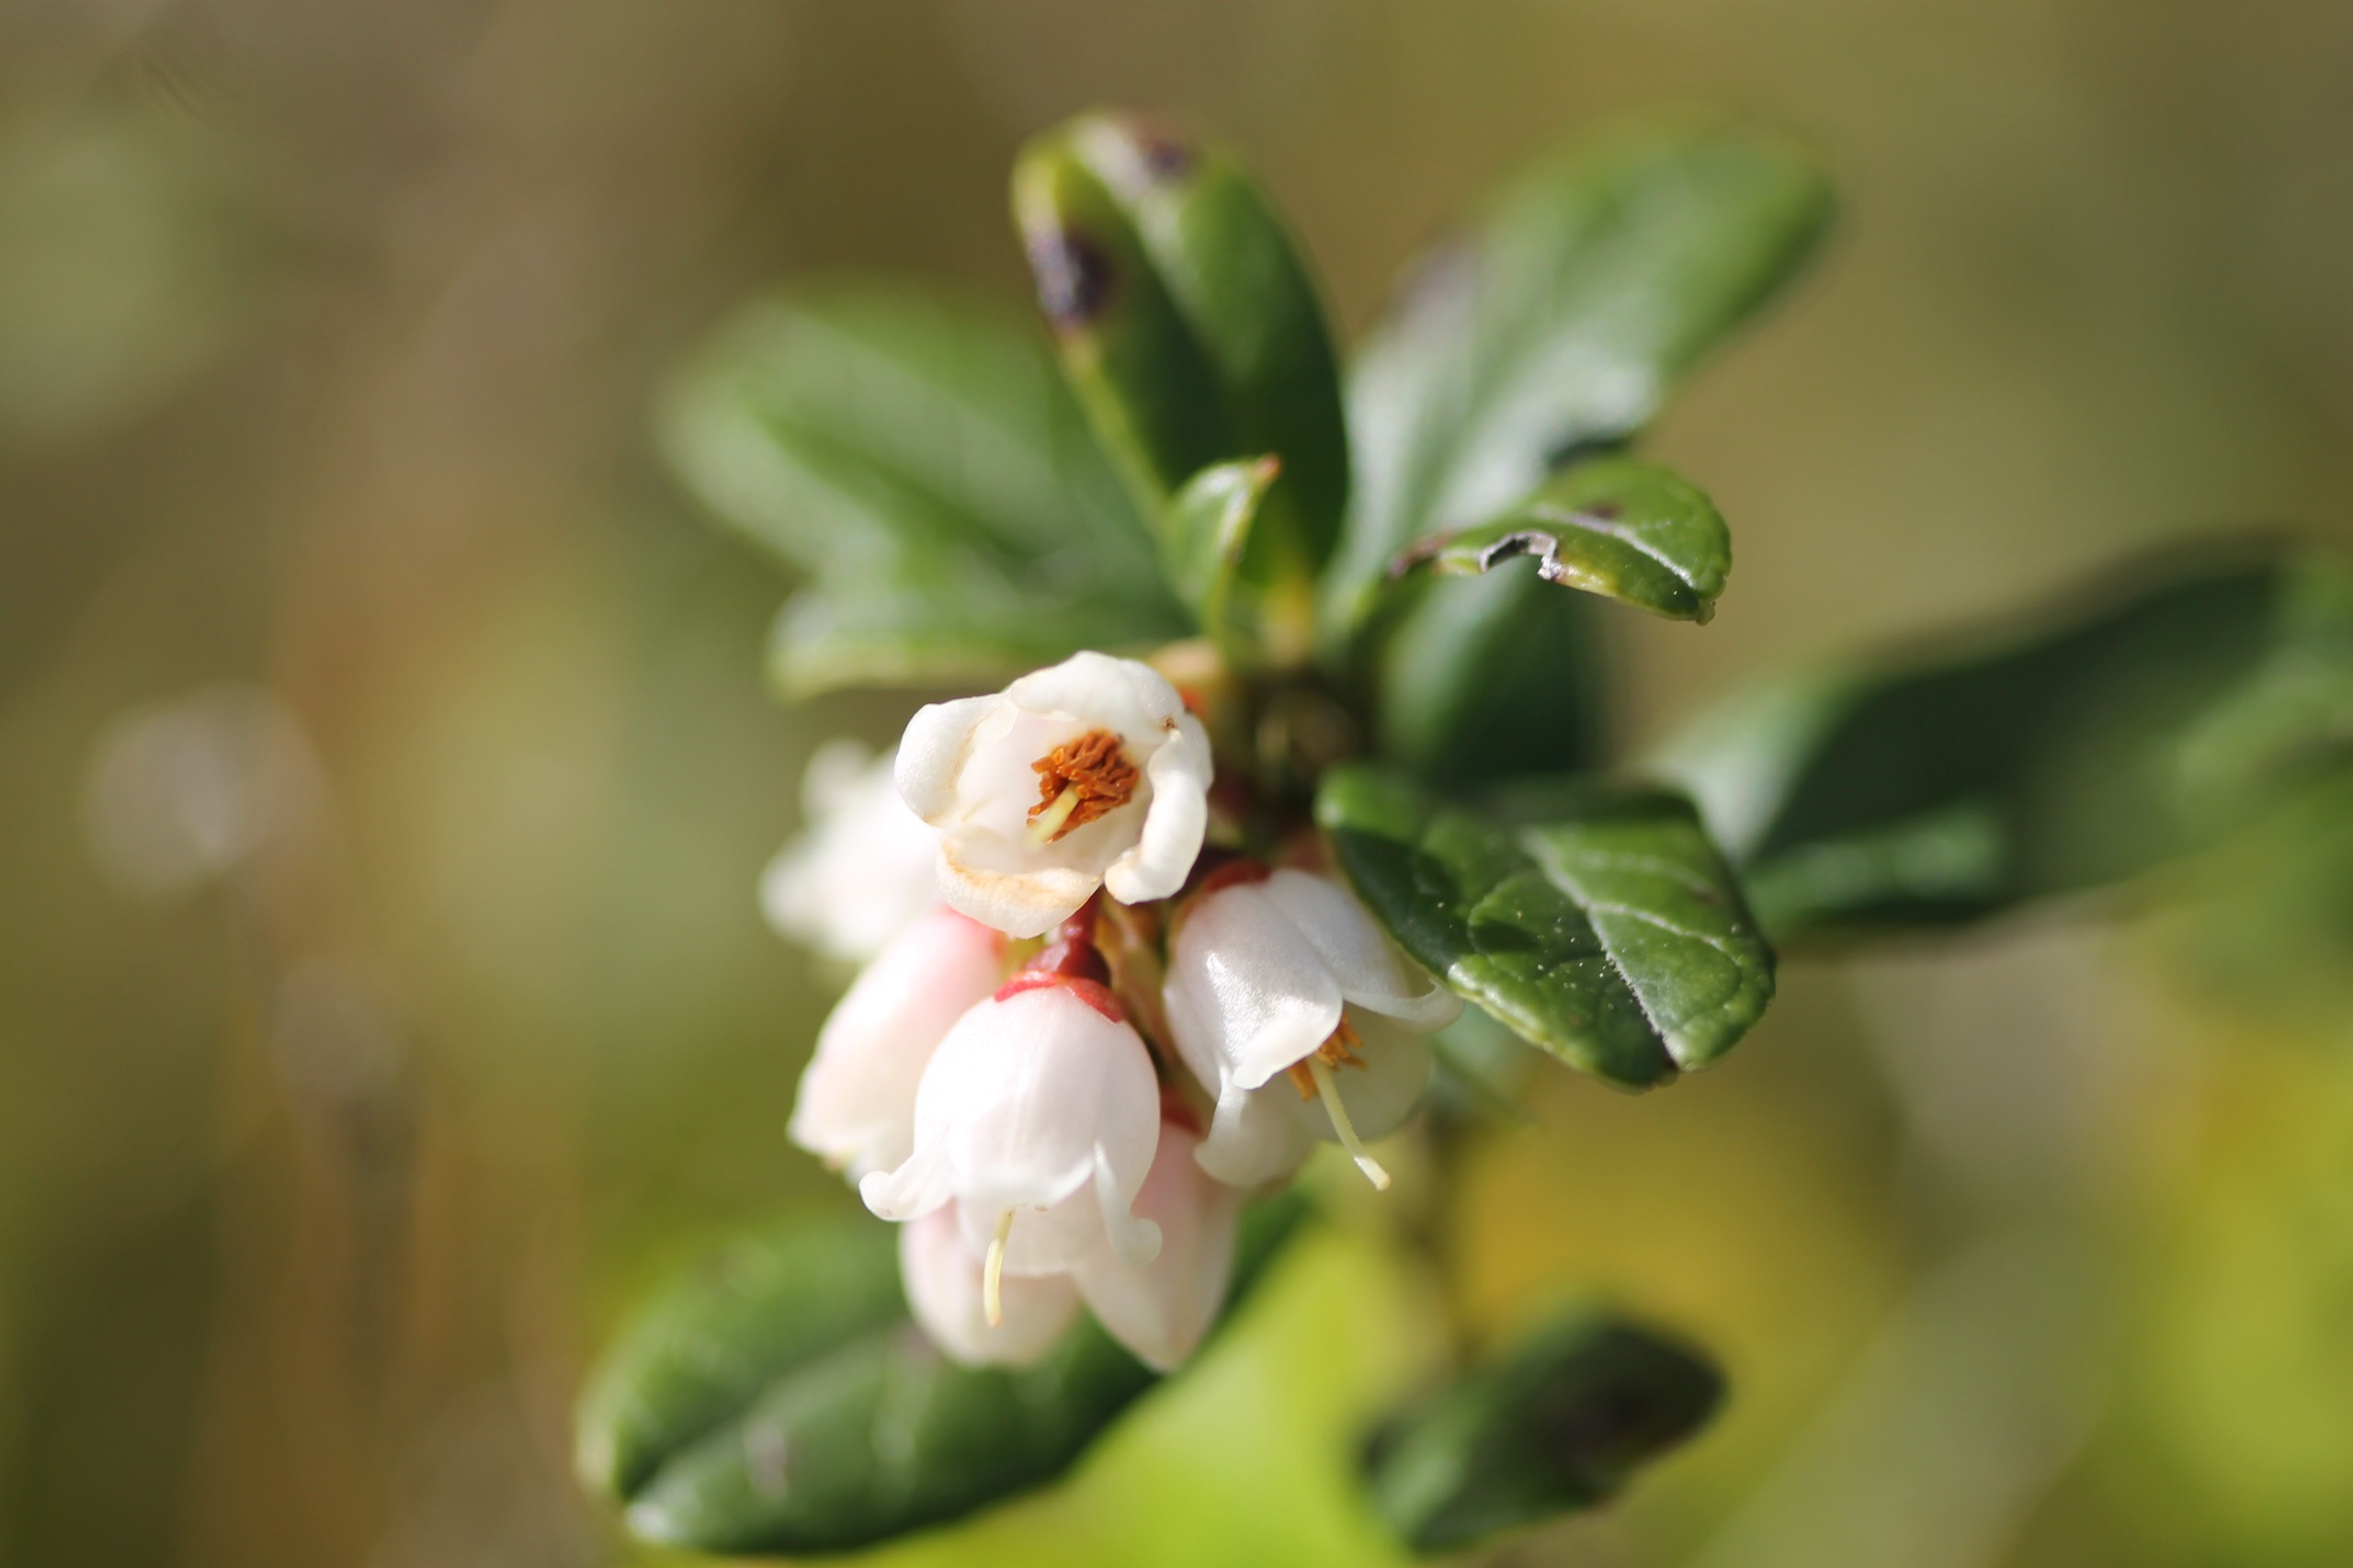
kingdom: Plantae
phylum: Tracheophyta
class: Magnoliopsida
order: Ericales
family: Ericaceae
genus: Vaccinium
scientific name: Vaccinium vitis-idaea
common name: Tyttebær
